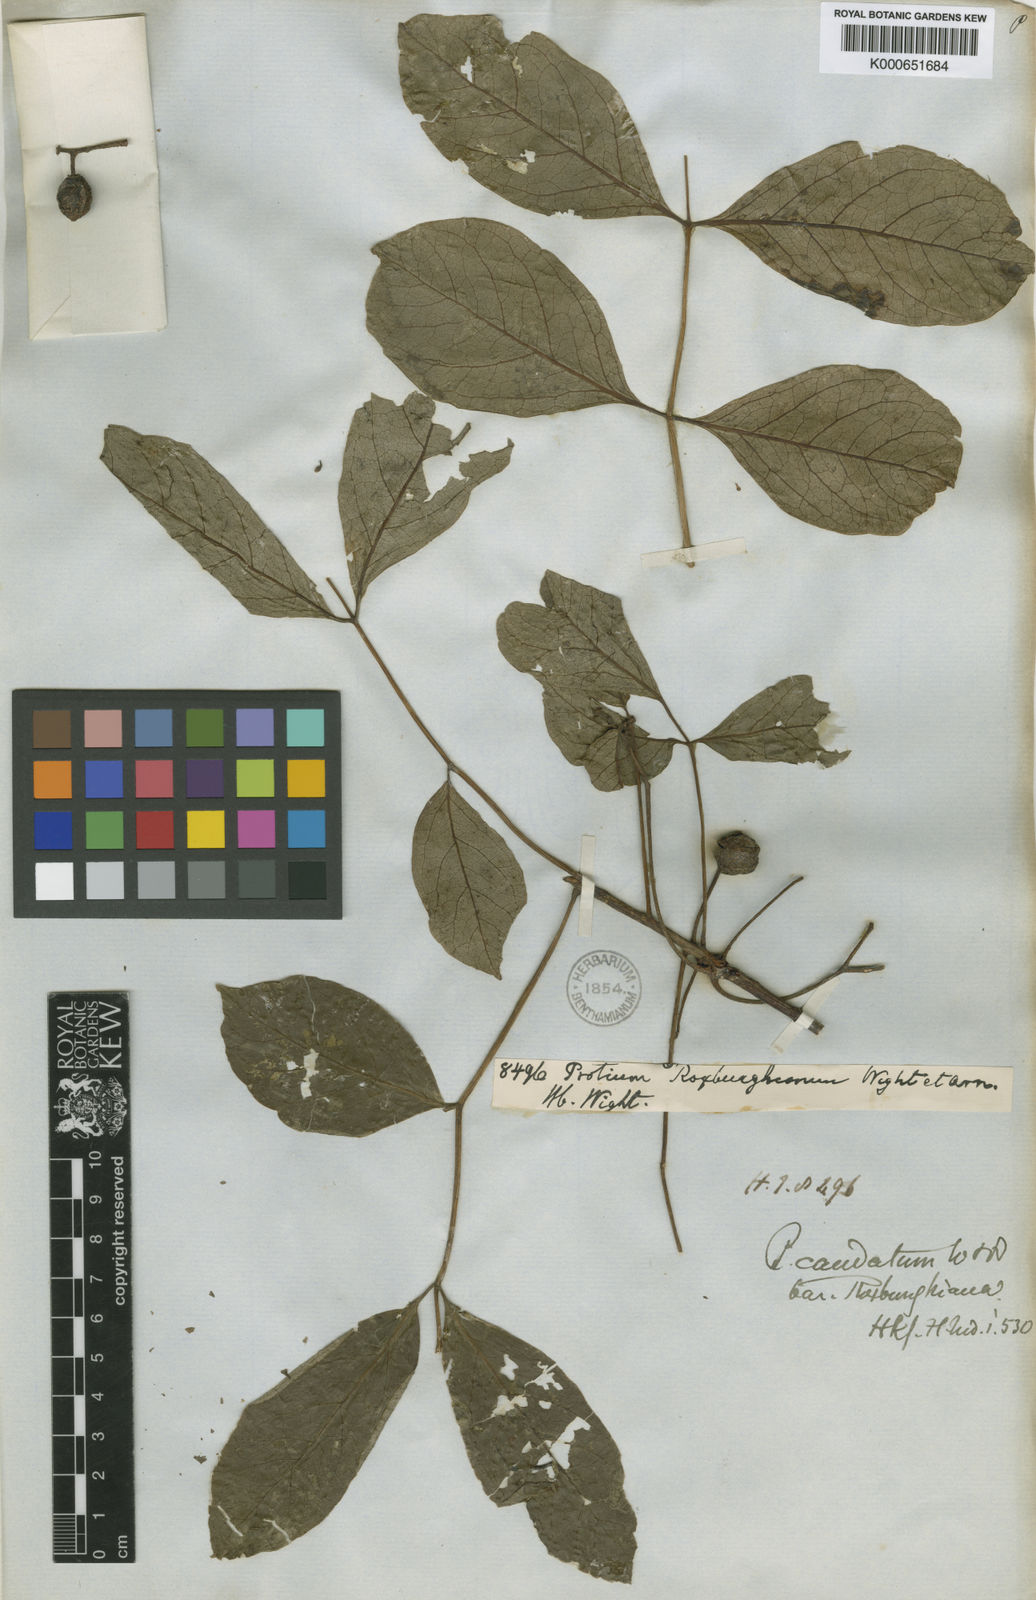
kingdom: Plantae
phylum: Tracheophyta
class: Magnoliopsida
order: Sapindales
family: Burseraceae
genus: Commiphora
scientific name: Commiphora caudata
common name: Hill-mango
